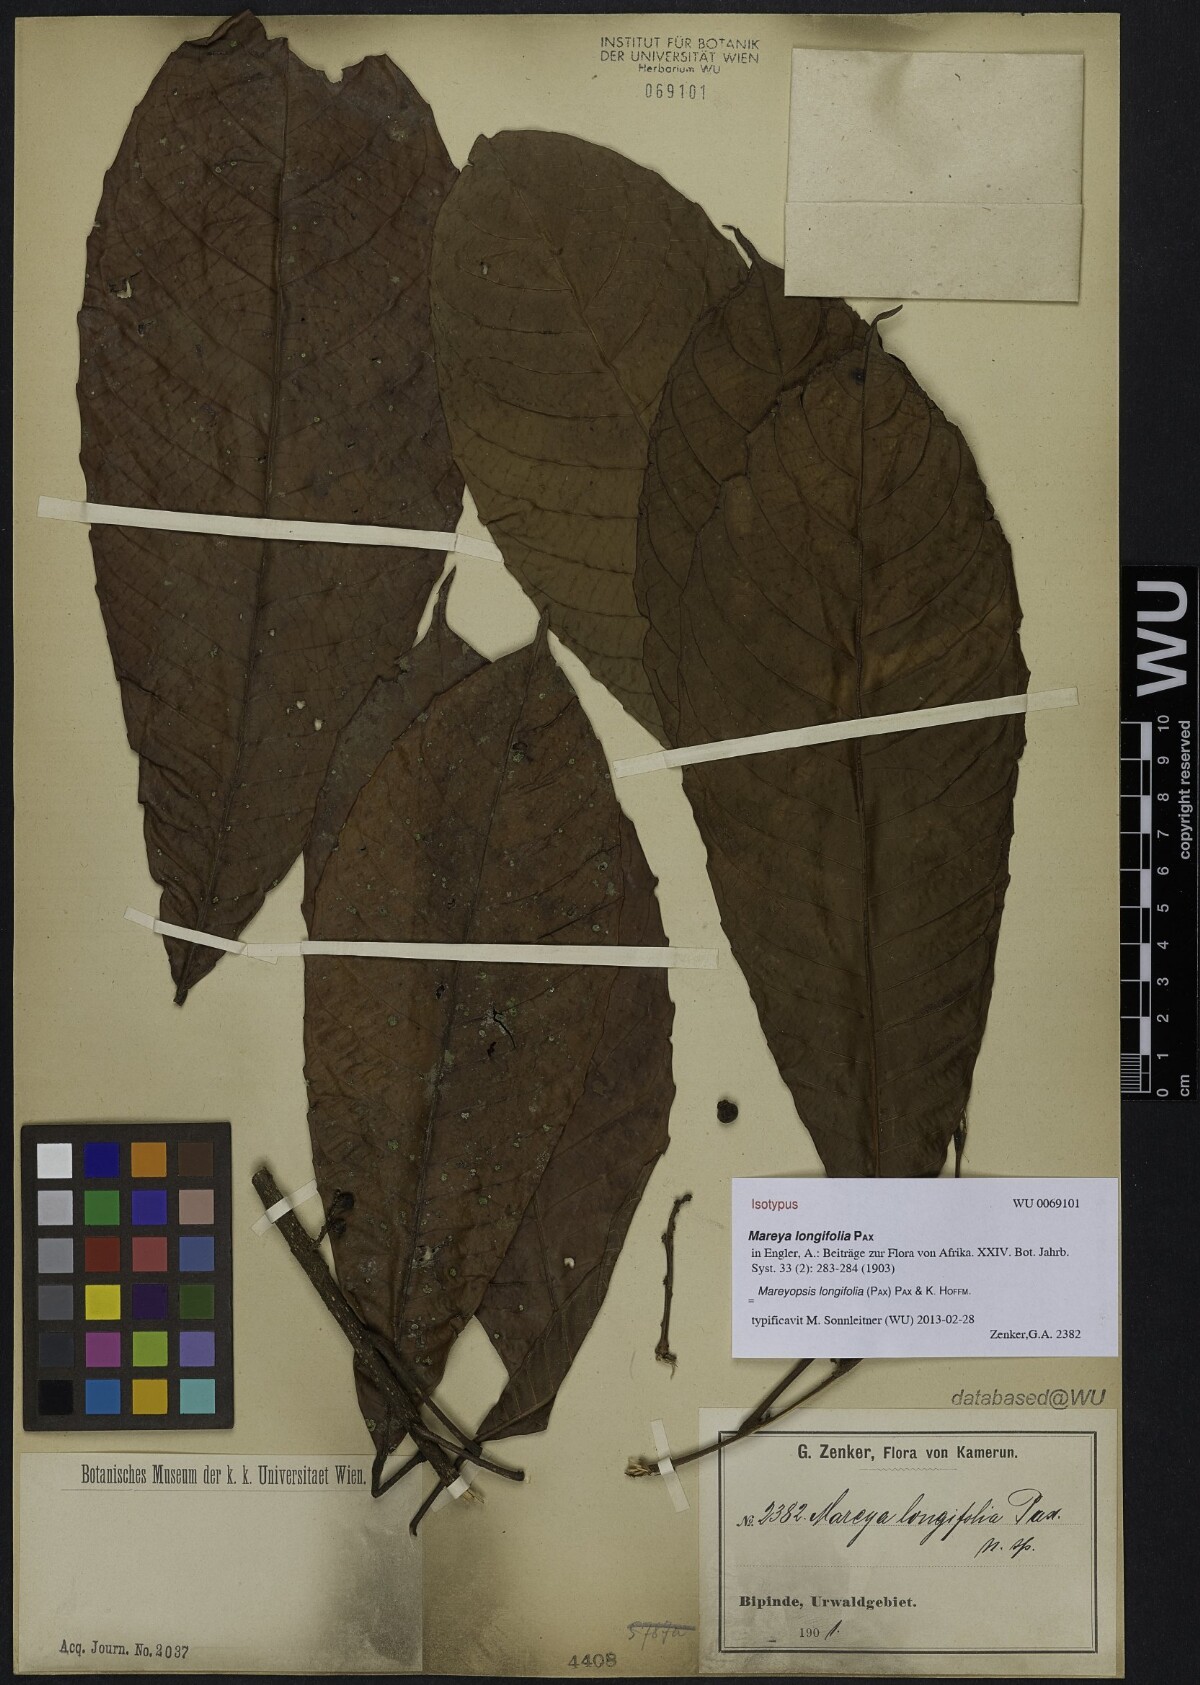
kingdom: Plantae
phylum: Tracheophyta
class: Magnoliopsida
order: Malpighiales
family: Euphorbiaceae
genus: Mareyopsis
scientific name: Mareyopsis longifolia
